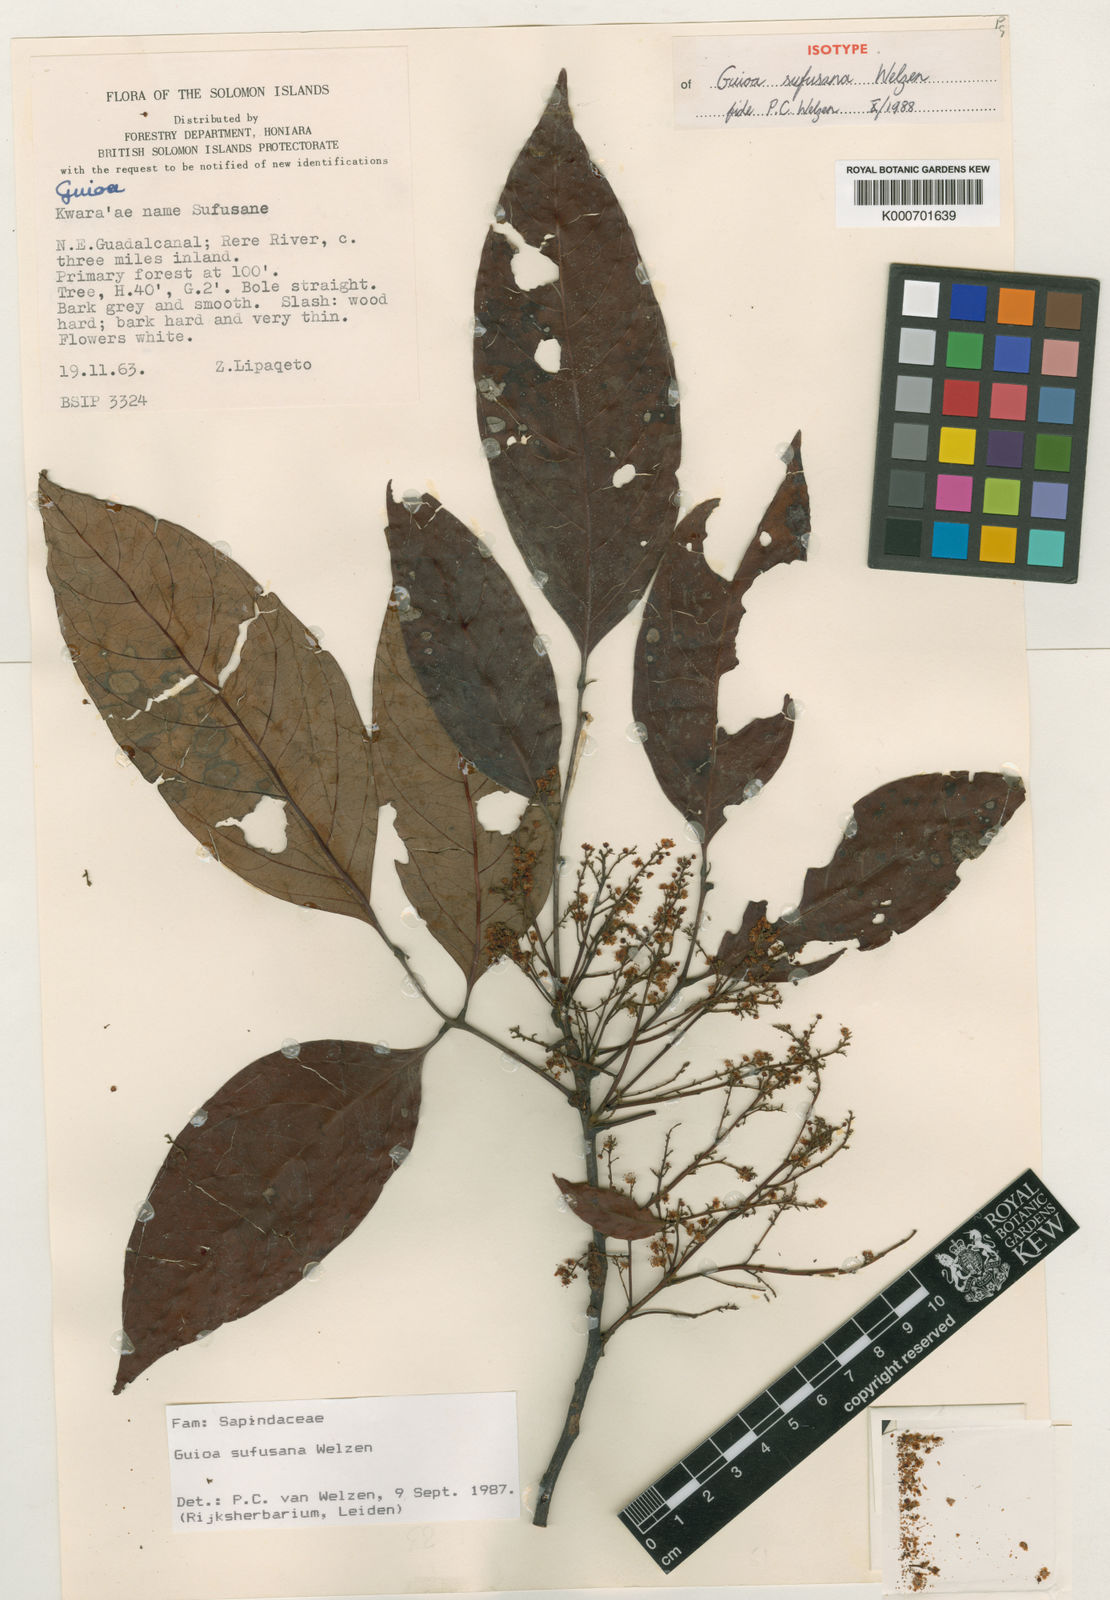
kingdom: Plantae
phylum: Tracheophyta
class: Magnoliopsida
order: Sapindales
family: Sapindaceae
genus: Guioa
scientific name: Guioa sufusana
